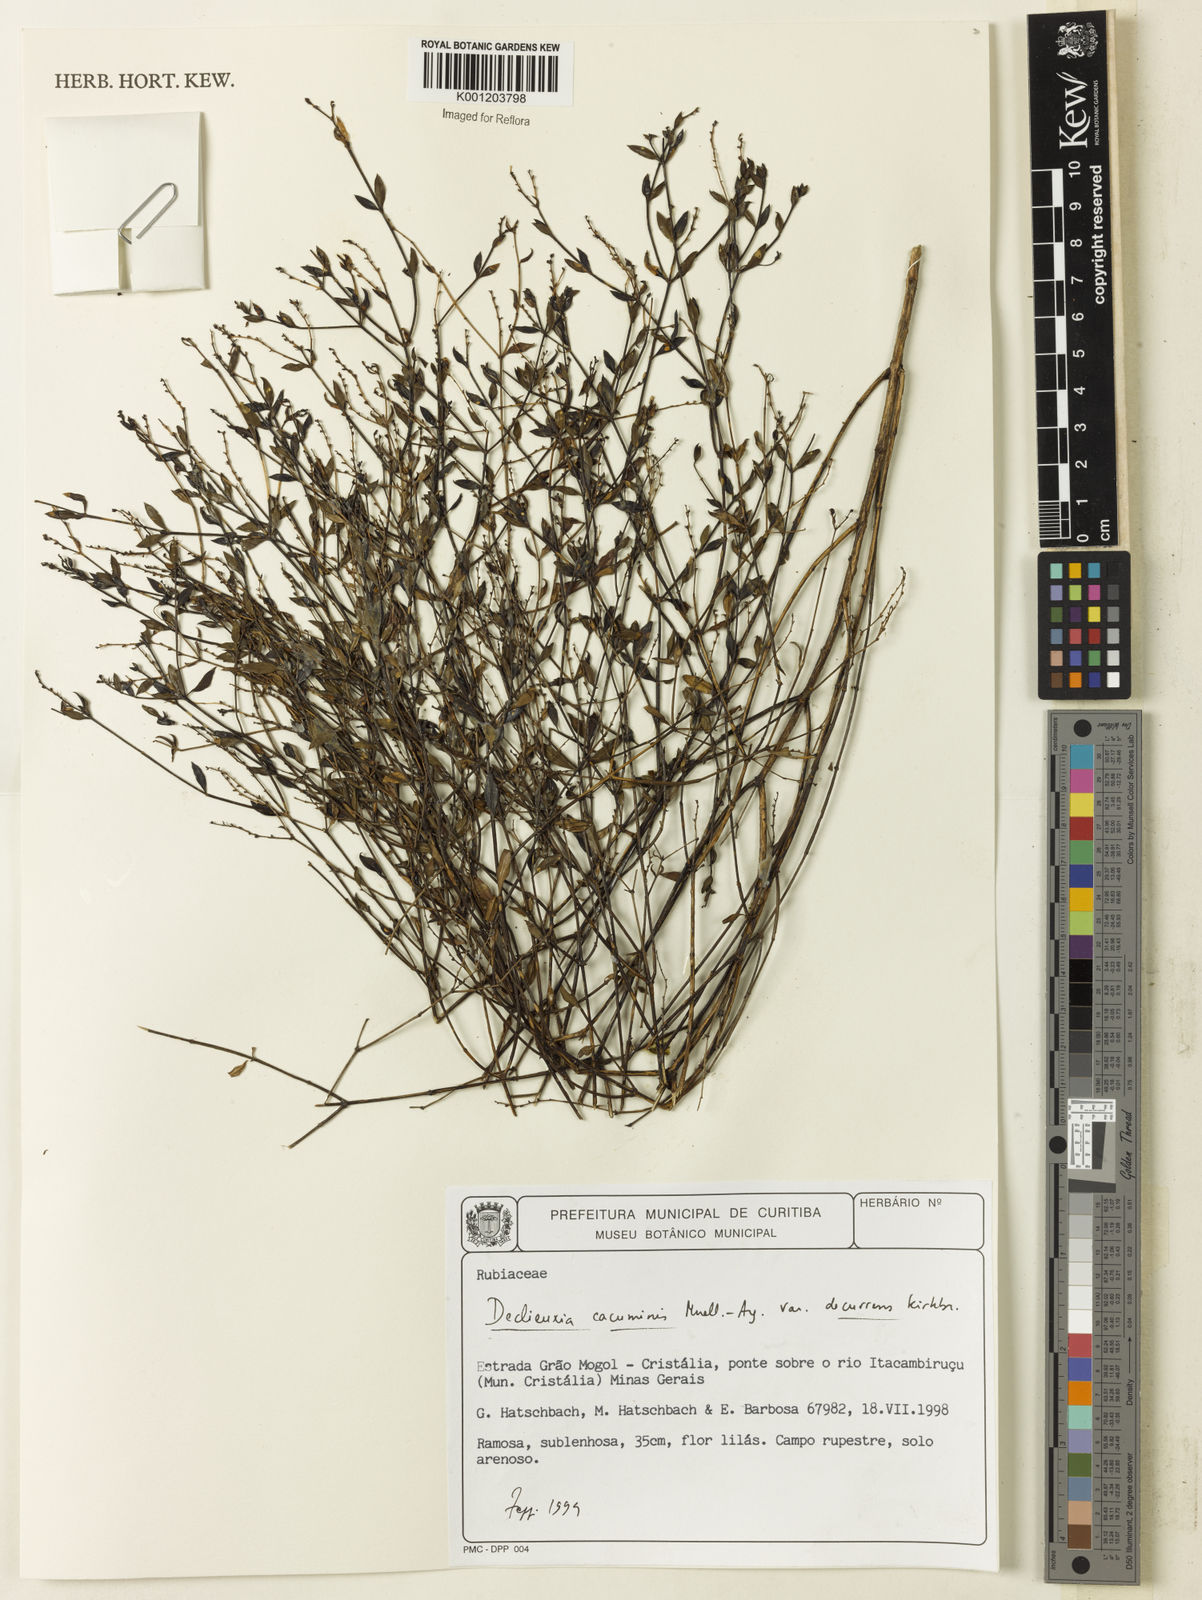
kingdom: Plantae
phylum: Tracheophyta
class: Magnoliopsida
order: Gentianales
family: Rubiaceae
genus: Declieuxia
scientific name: Declieuxia
